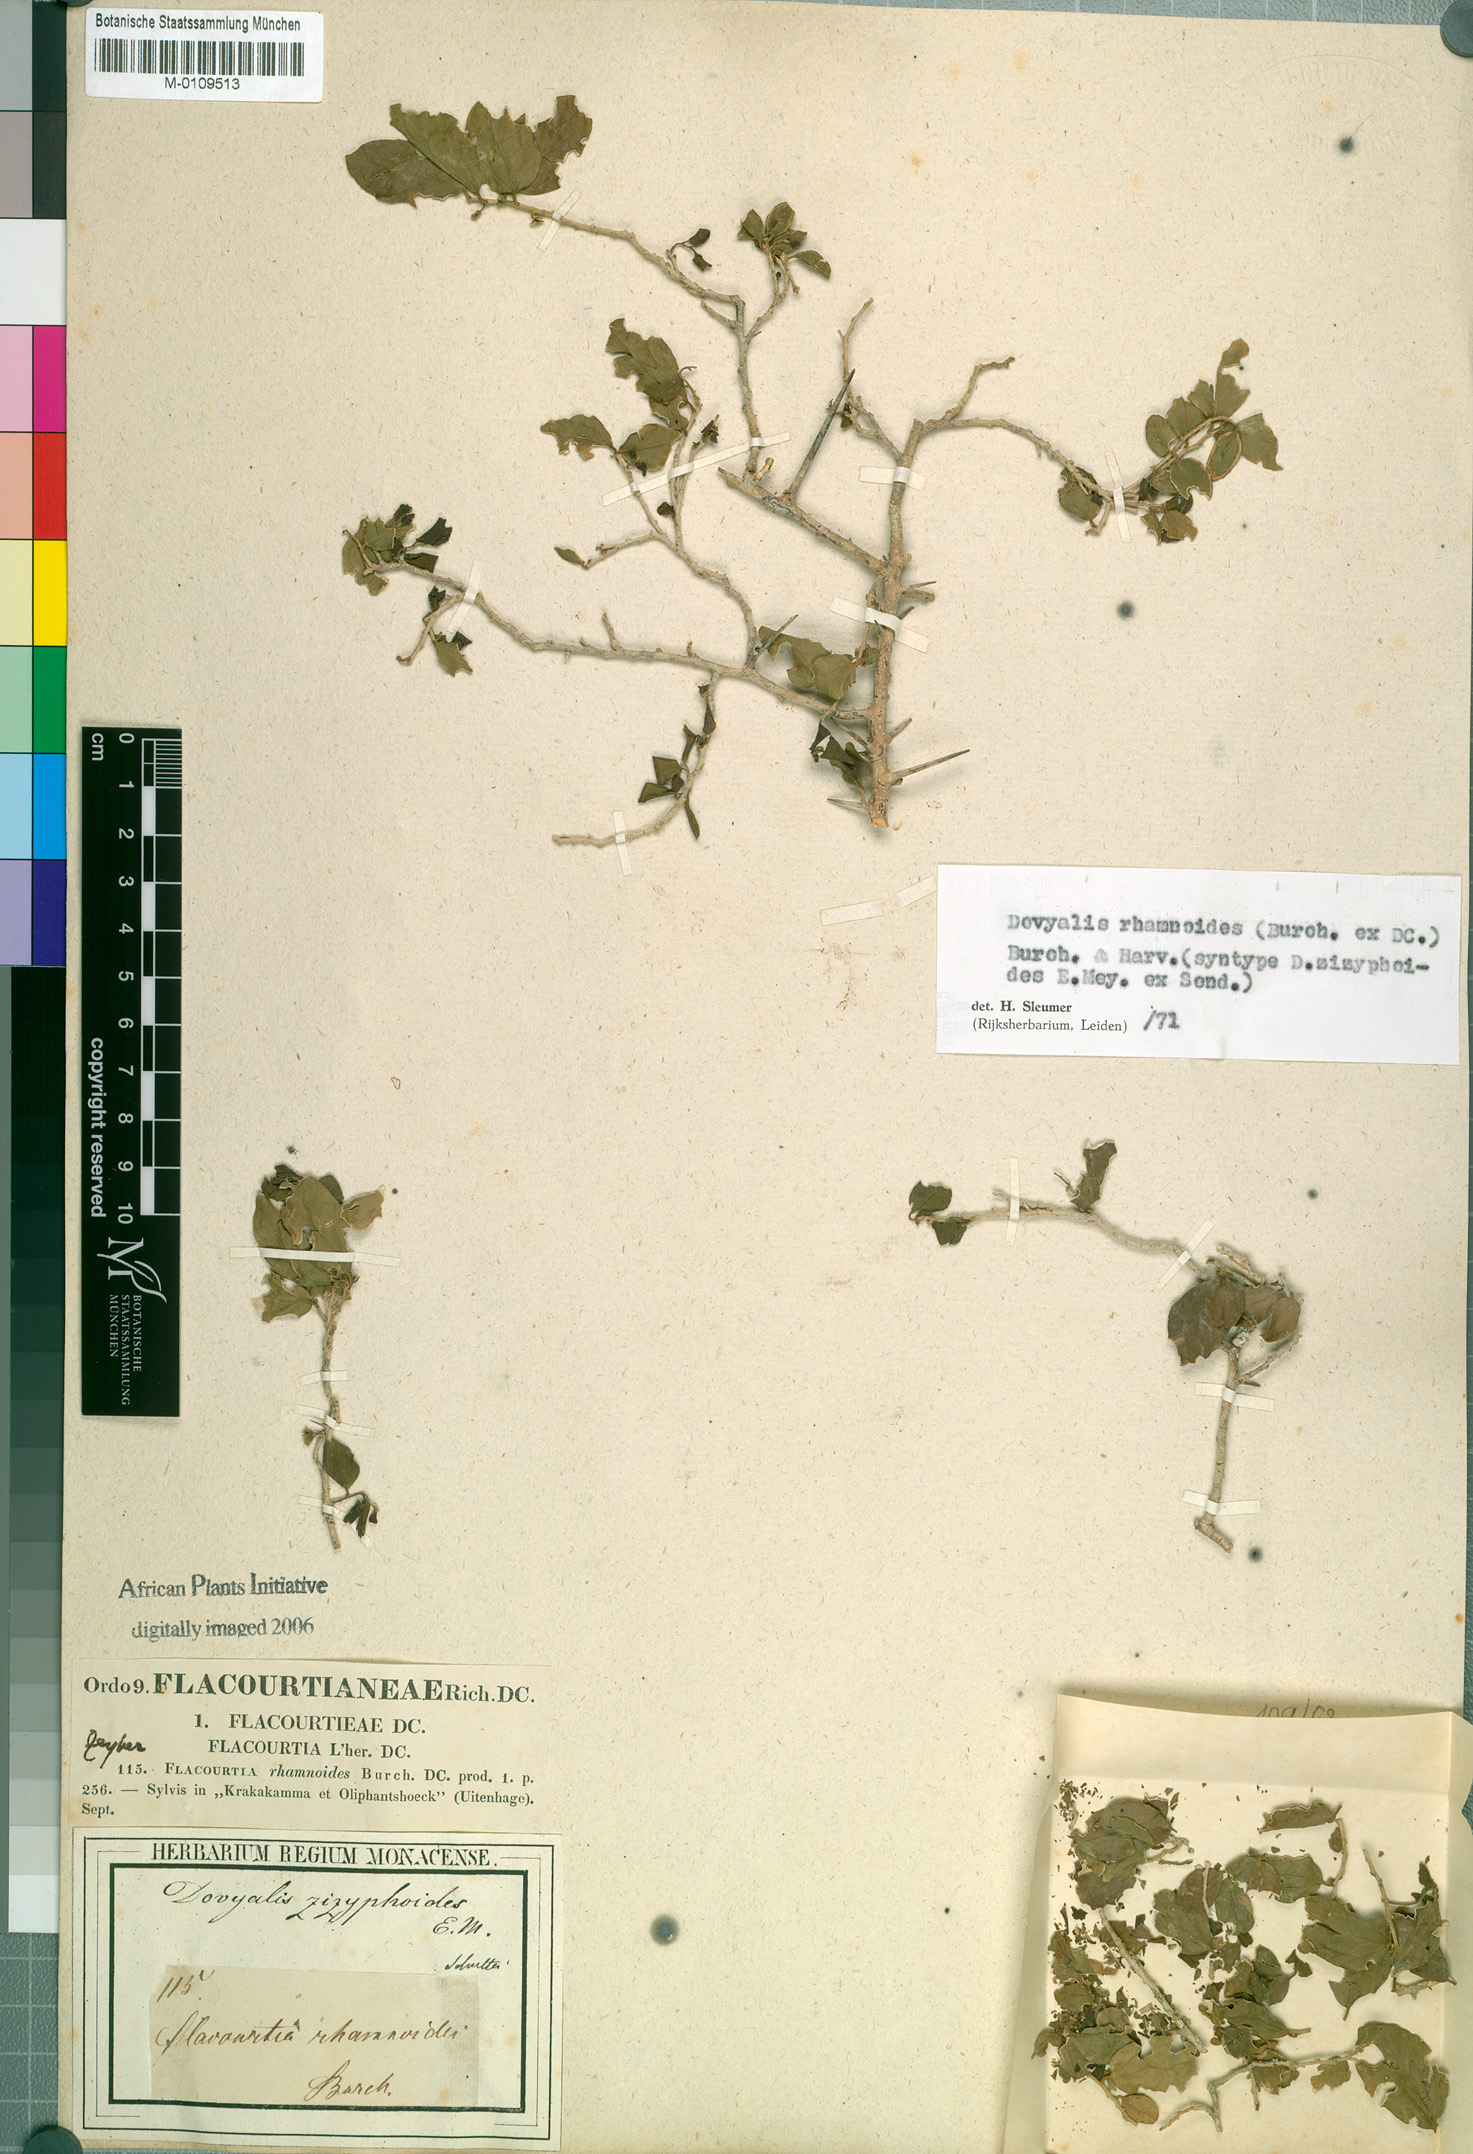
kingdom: Plantae
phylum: Tracheophyta
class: Magnoliopsida
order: Malpighiales
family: Salicaceae
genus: Dovyalis
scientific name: Dovyalis rhamnoides
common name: Sourberry
